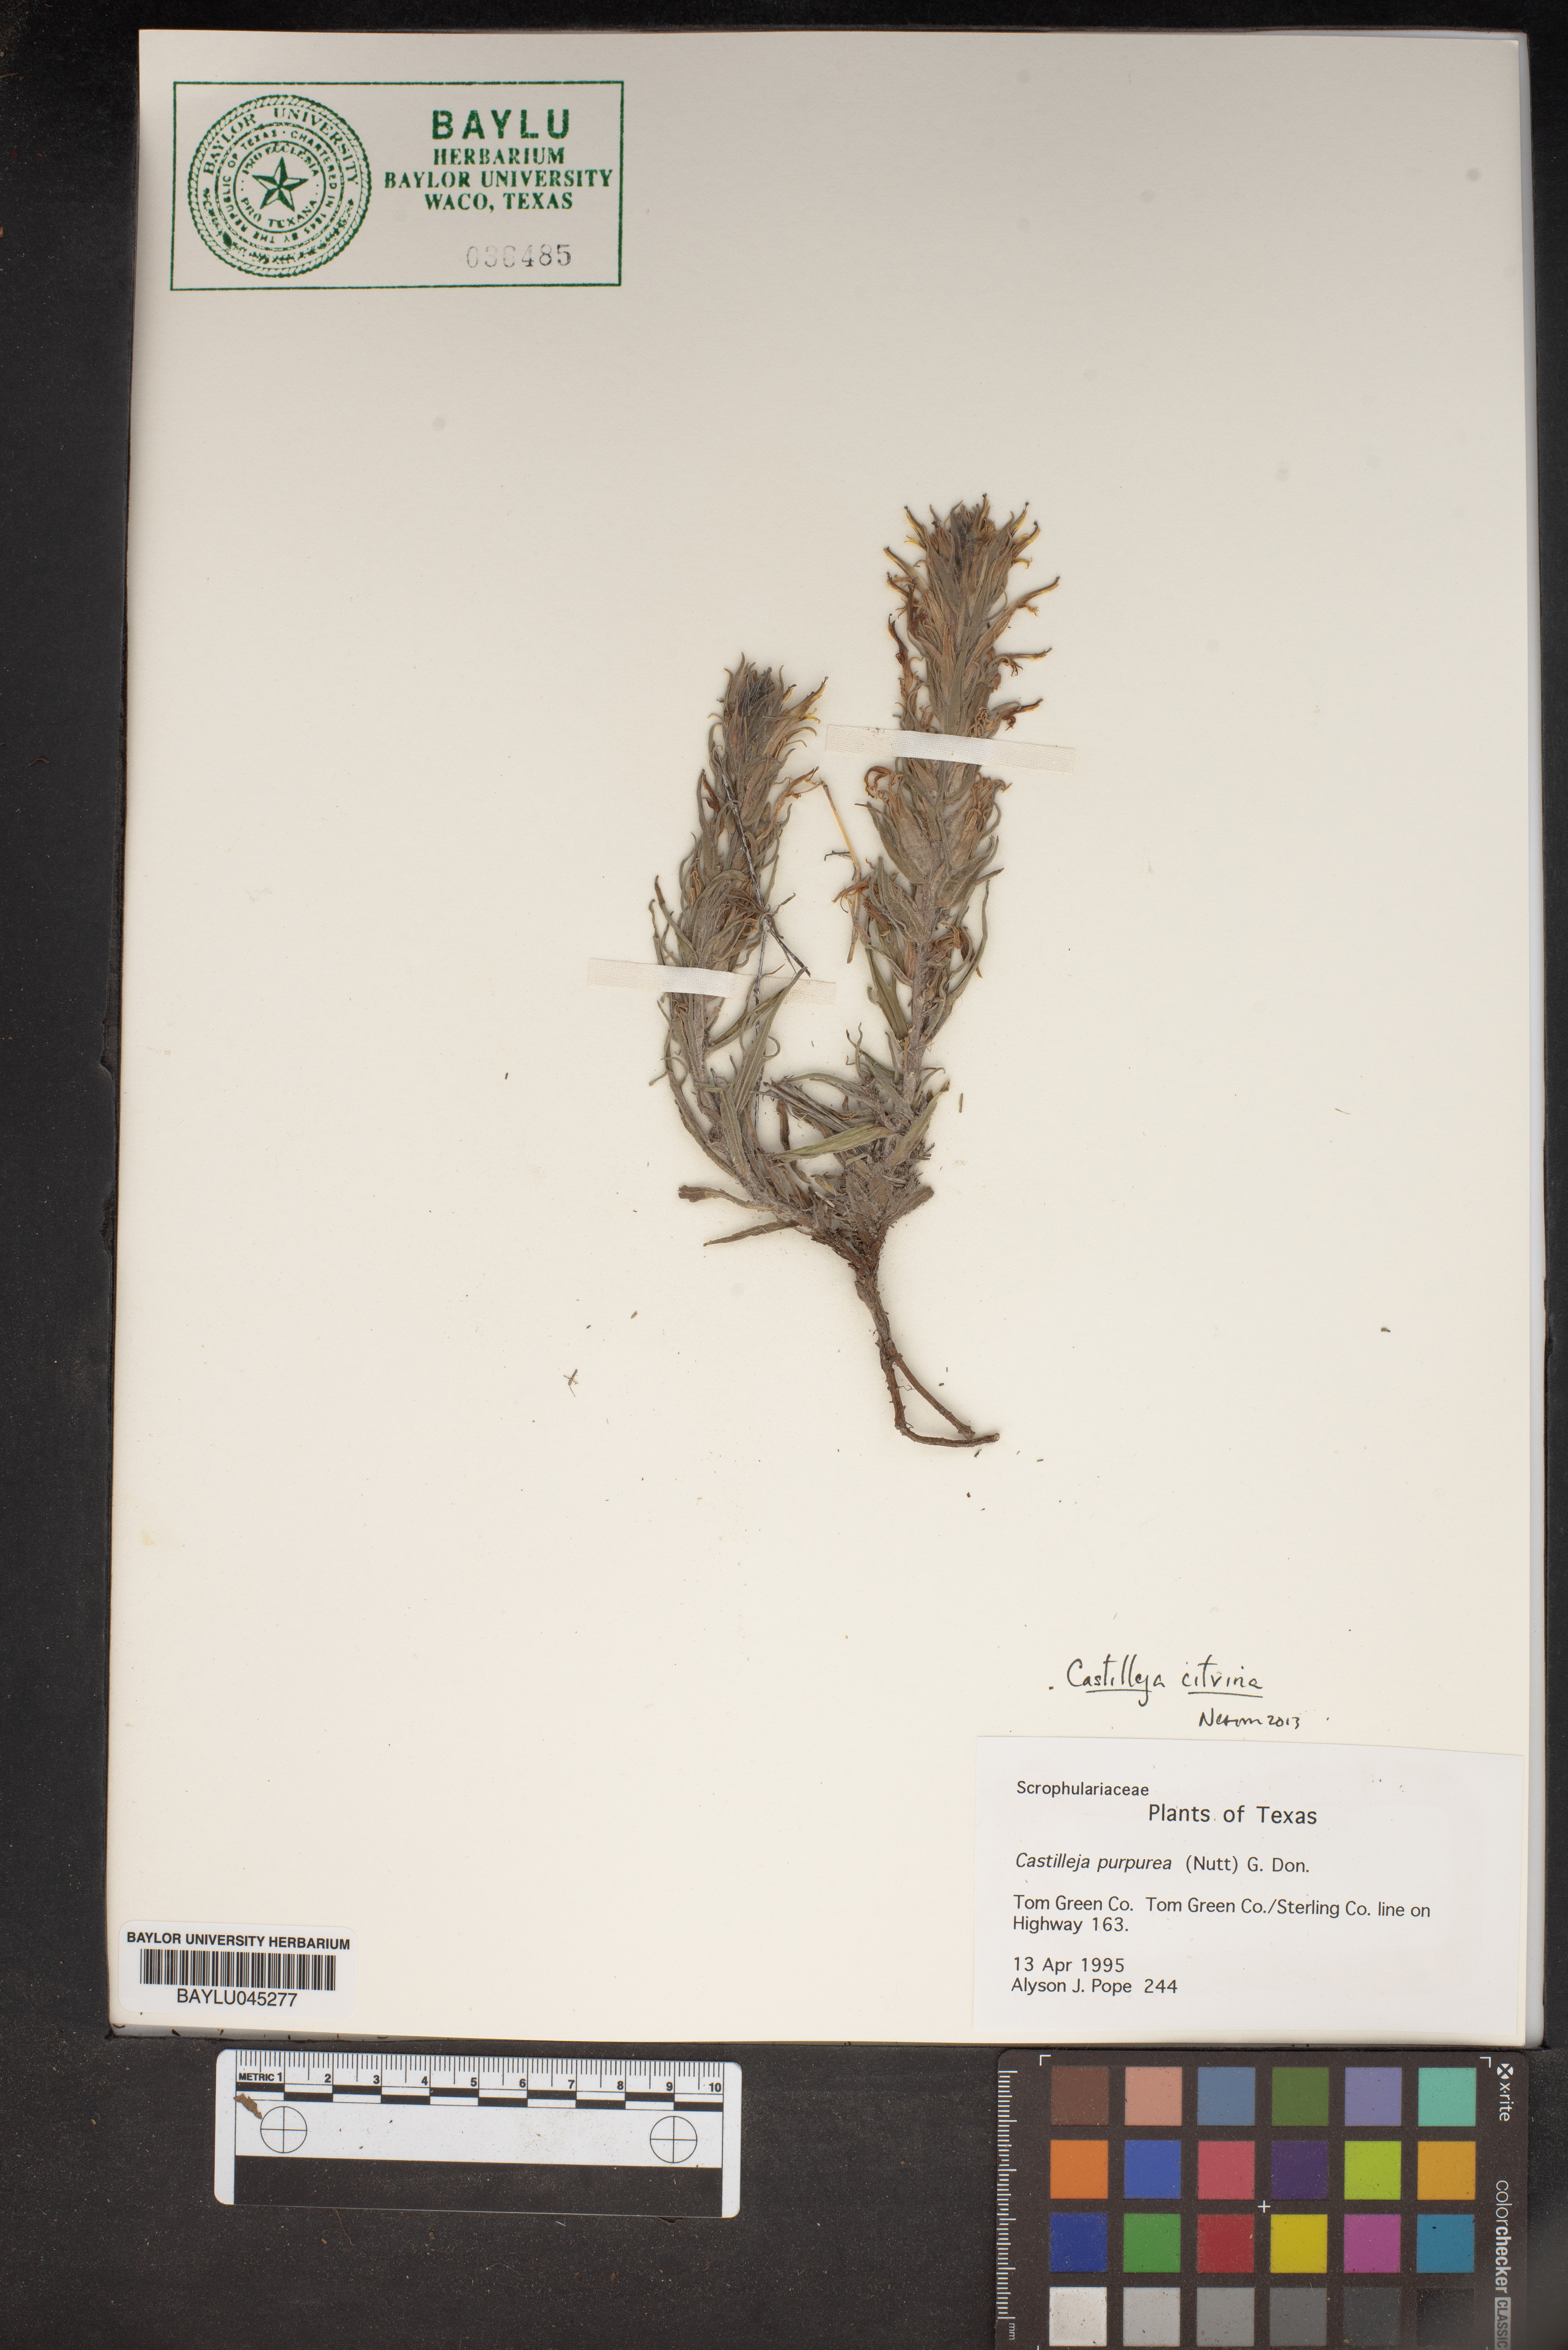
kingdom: Plantae
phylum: Tracheophyta
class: Magnoliopsida
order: Lamiales
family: Orobanchaceae
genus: Castilleja
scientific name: Castilleja purpurea
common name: Plains paintbrush
